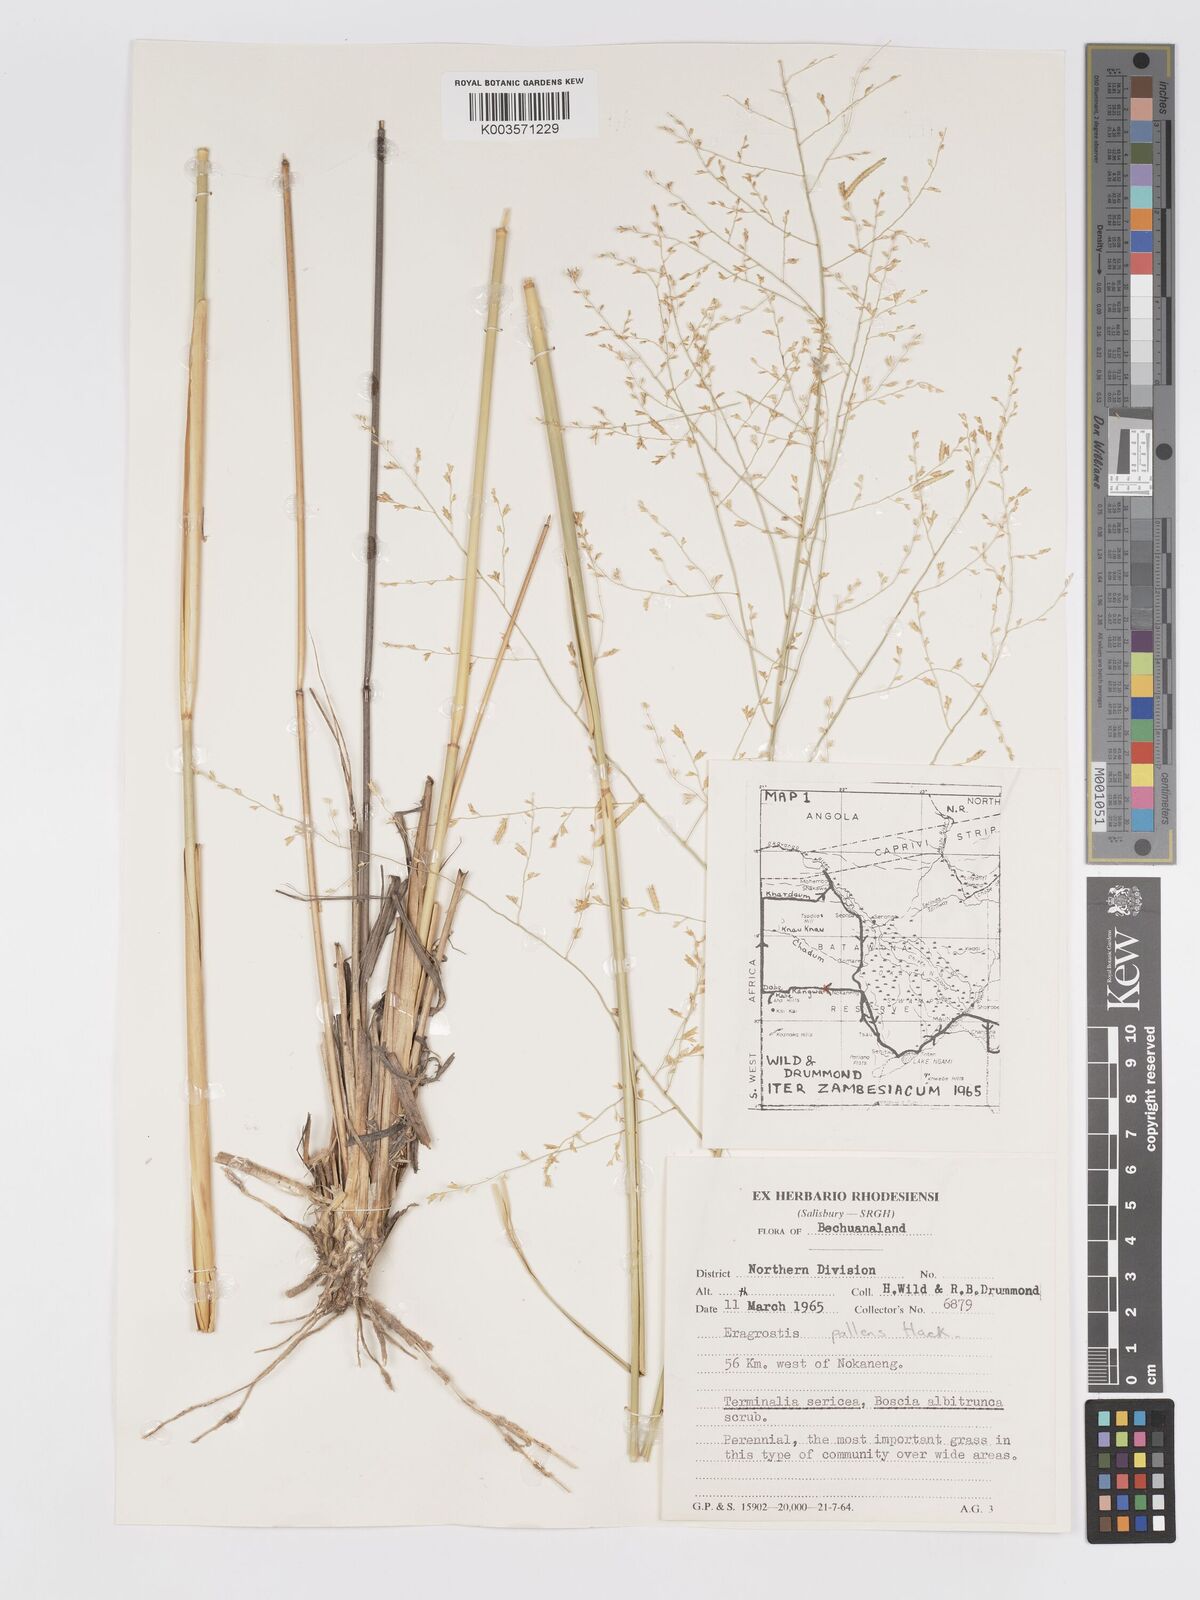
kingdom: Plantae
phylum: Tracheophyta
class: Liliopsida
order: Poales
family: Poaceae
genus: Eragrostis
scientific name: Eragrostis pallens
